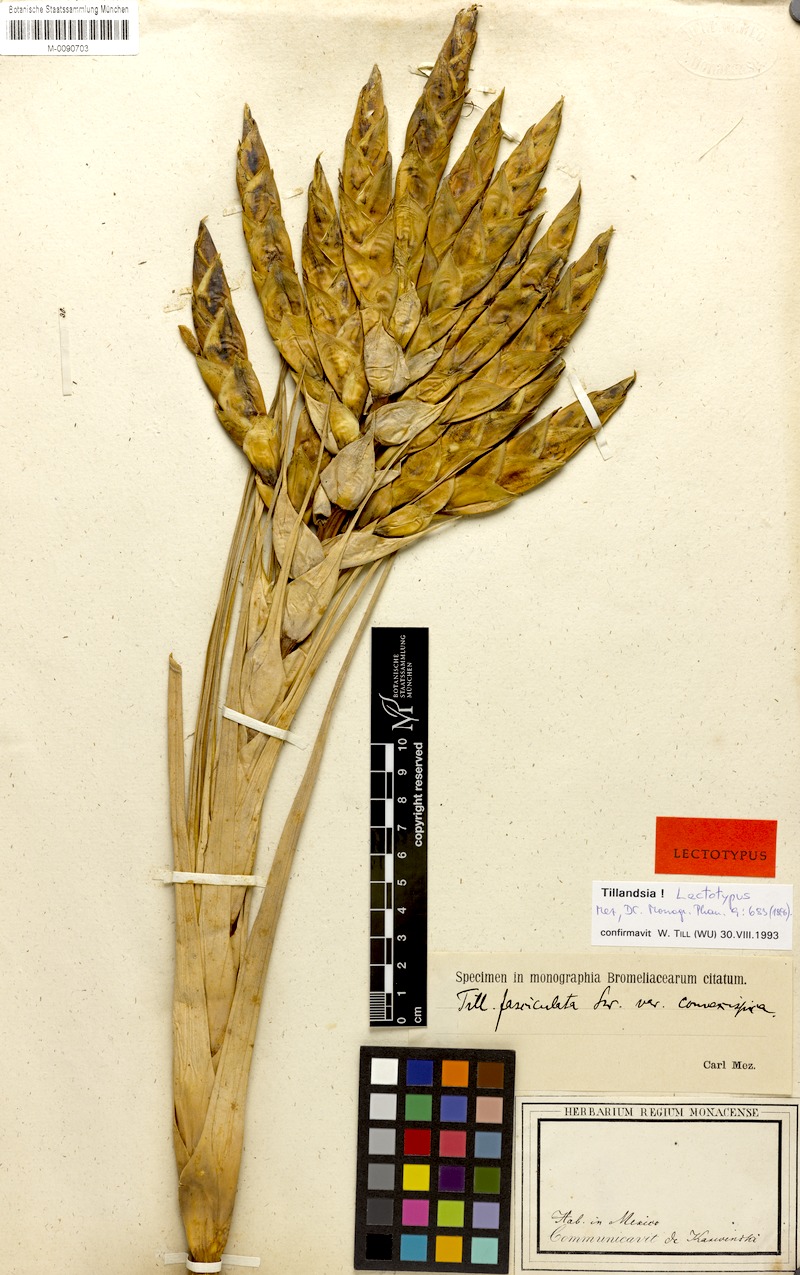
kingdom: Plantae
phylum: Tracheophyta
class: Liliopsida
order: Poales
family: Bromeliaceae
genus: Tillandsia
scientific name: Tillandsia fasciculata
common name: Giant airplant
